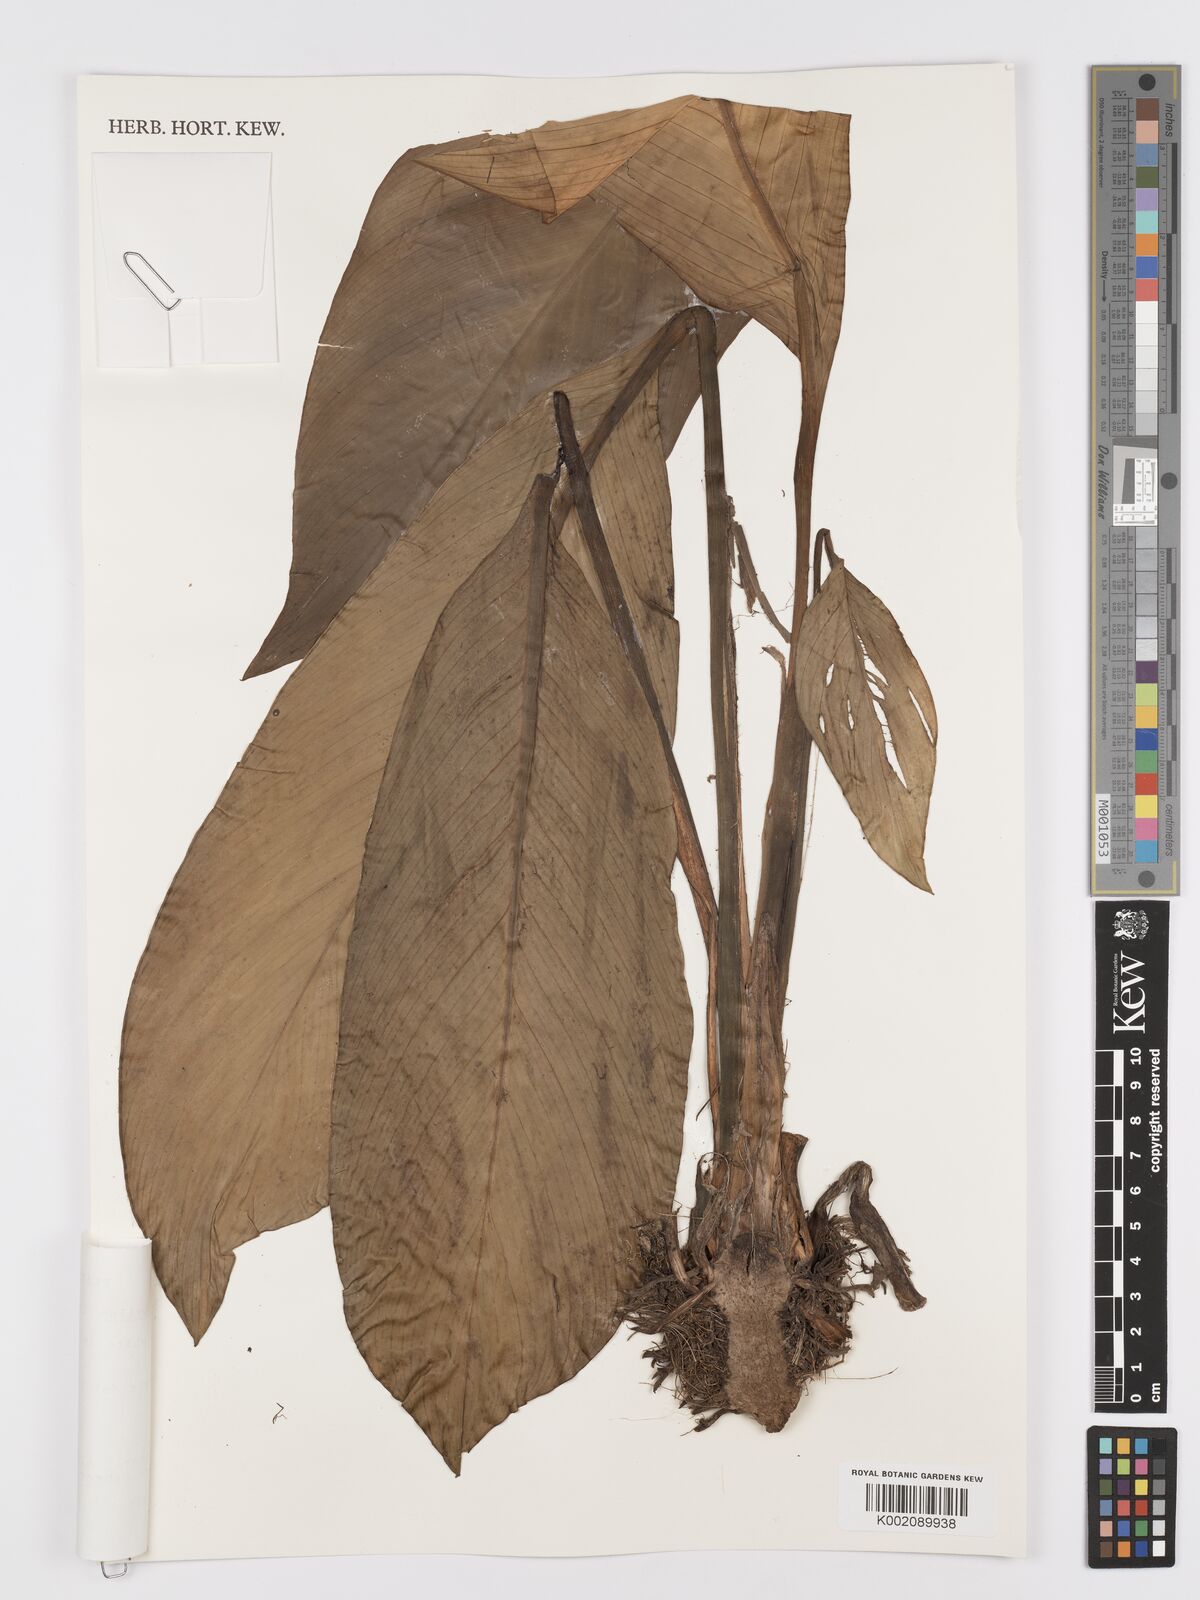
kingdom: Plantae
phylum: Tracheophyta
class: Liliopsida
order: Alismatales
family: Araceae
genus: Spathiphyllum
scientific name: Spathiphyllum cannifolium
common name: Spatheflower
